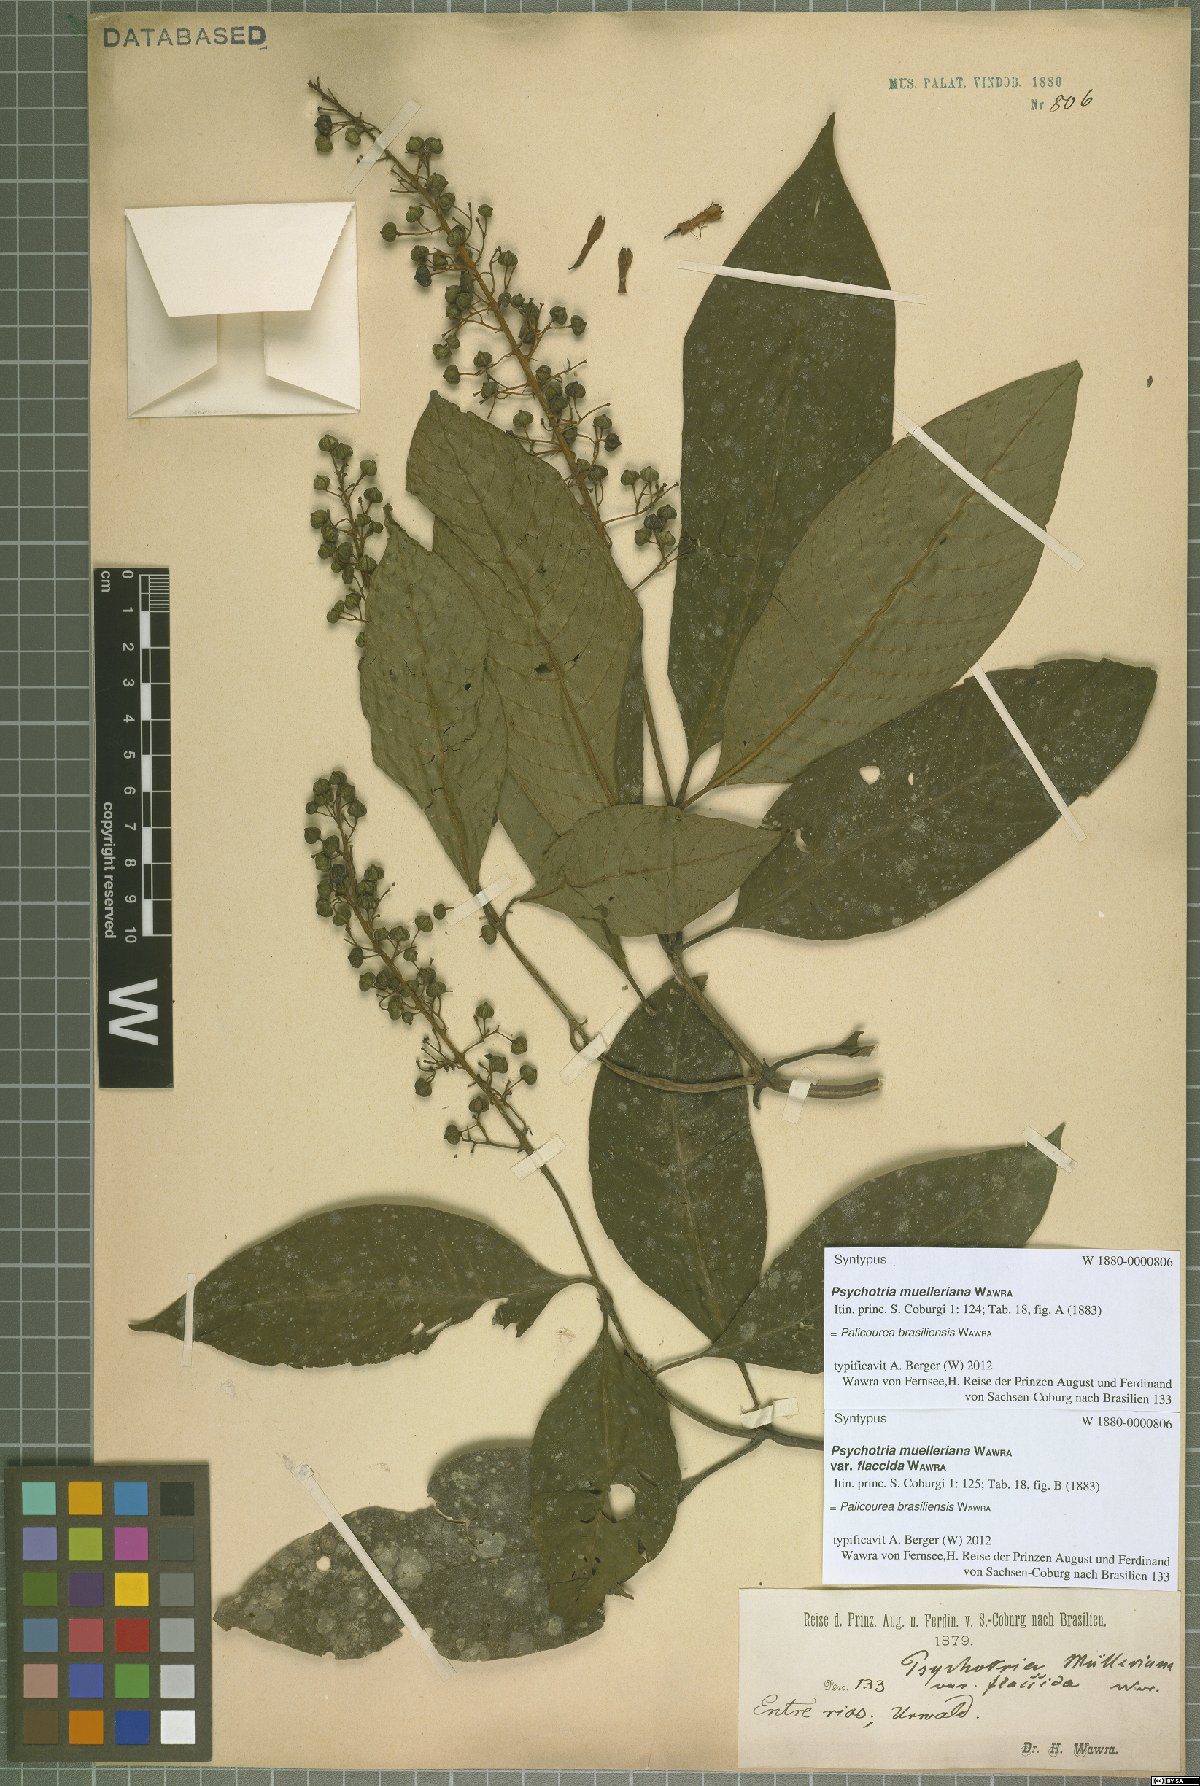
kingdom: Plantae
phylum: Tracheophyta
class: Magnoliopsida
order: Gentianales
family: Rubiaceae
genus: Palicourea
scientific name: Palicourea brasiliensis
